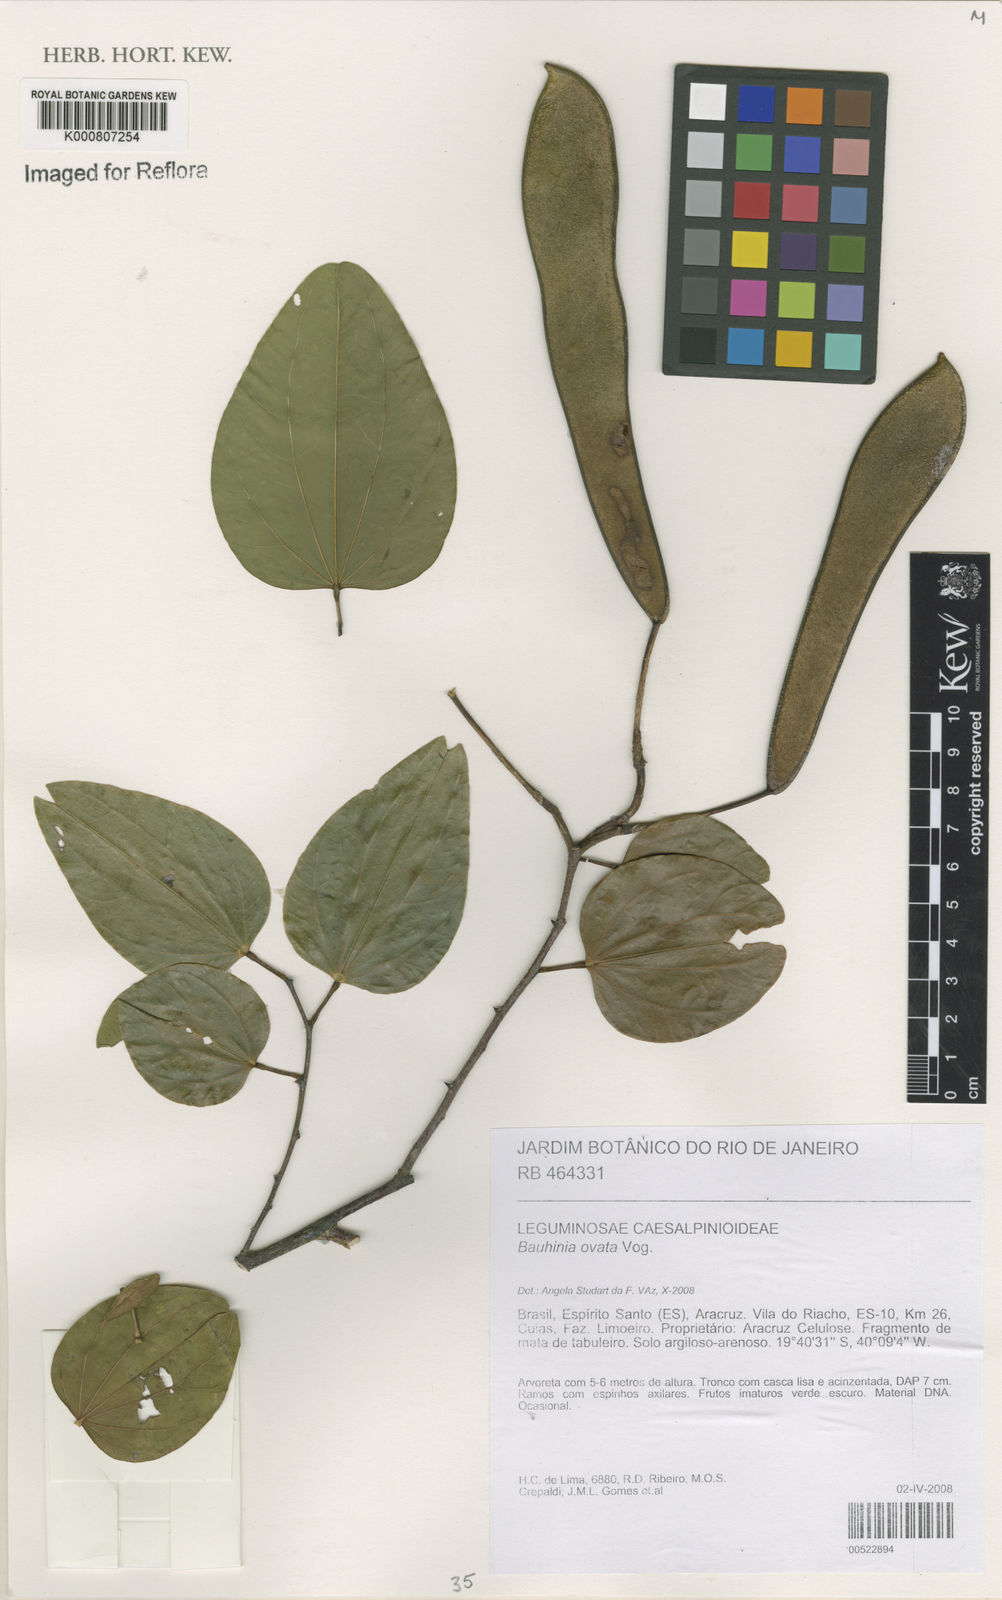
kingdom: Plantae
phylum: Tracheophyta
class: Magnoliopsida
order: Fabales
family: Fabaceae
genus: Bauhinia
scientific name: Bauhinia ovata
